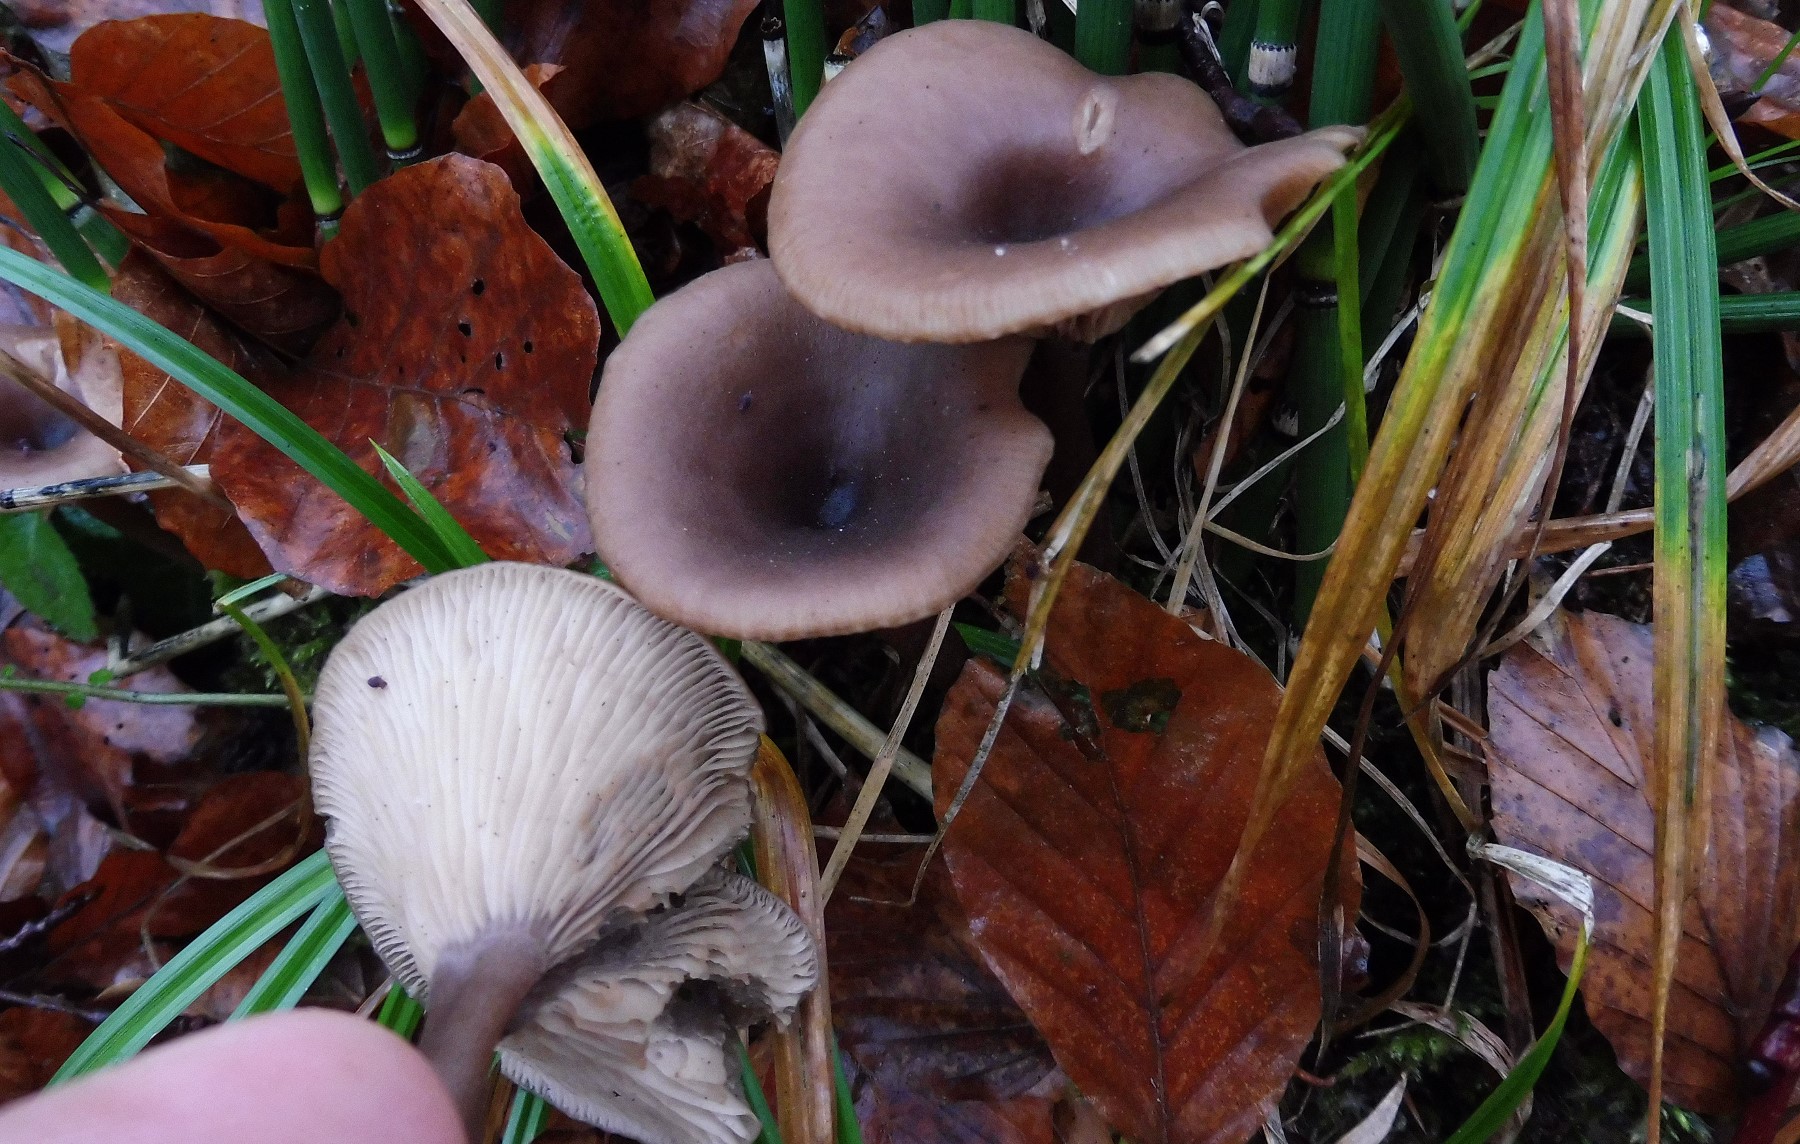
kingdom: Fungi
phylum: Basidiomycota
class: Agaricomycetes
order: Agaricales
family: Pseudoclitocybaceae
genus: Pseudoclitocybe
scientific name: Pseudoclitocybe cyathiformis
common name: almindelig bægertragthat
